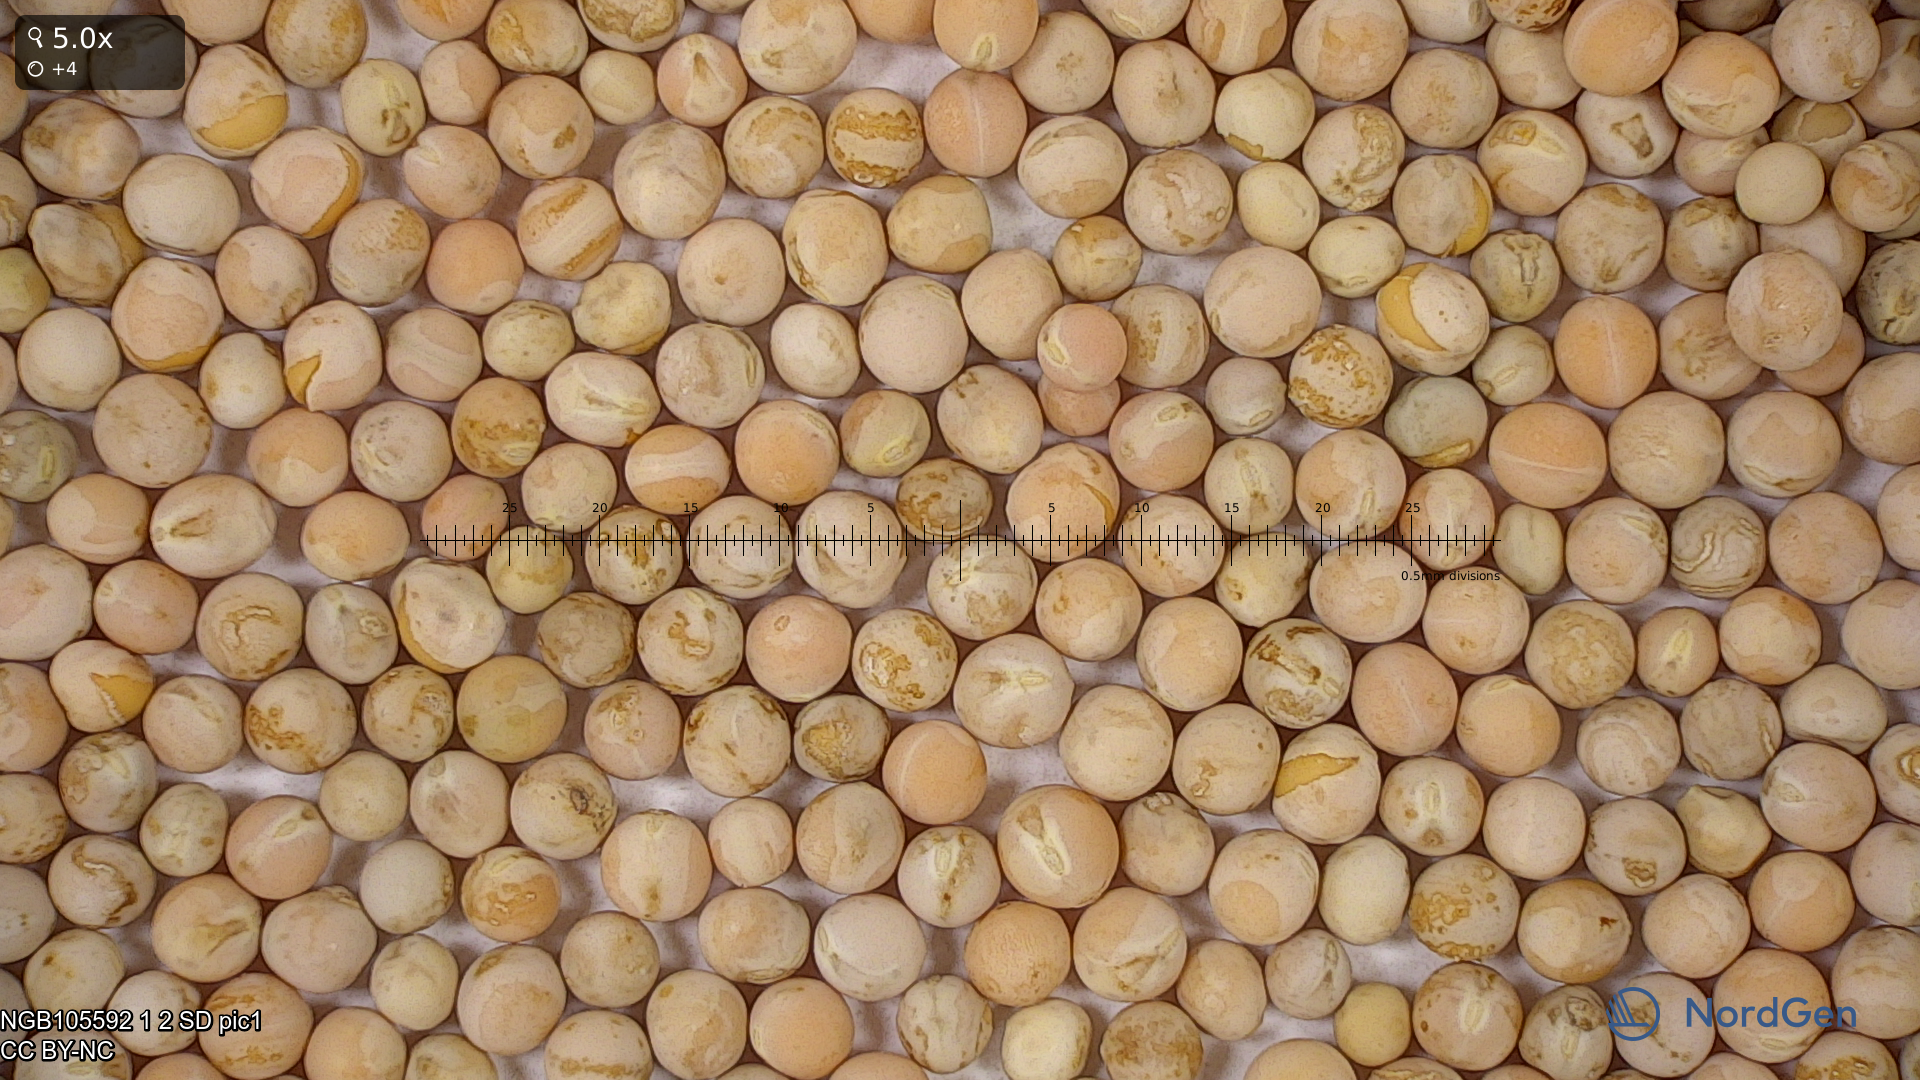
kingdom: Plantae
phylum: Tracheophyta
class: Magnoliopsida
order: Fabales
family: Fabaceae
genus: Lathyrus
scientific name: Lathyrus oleraceus
